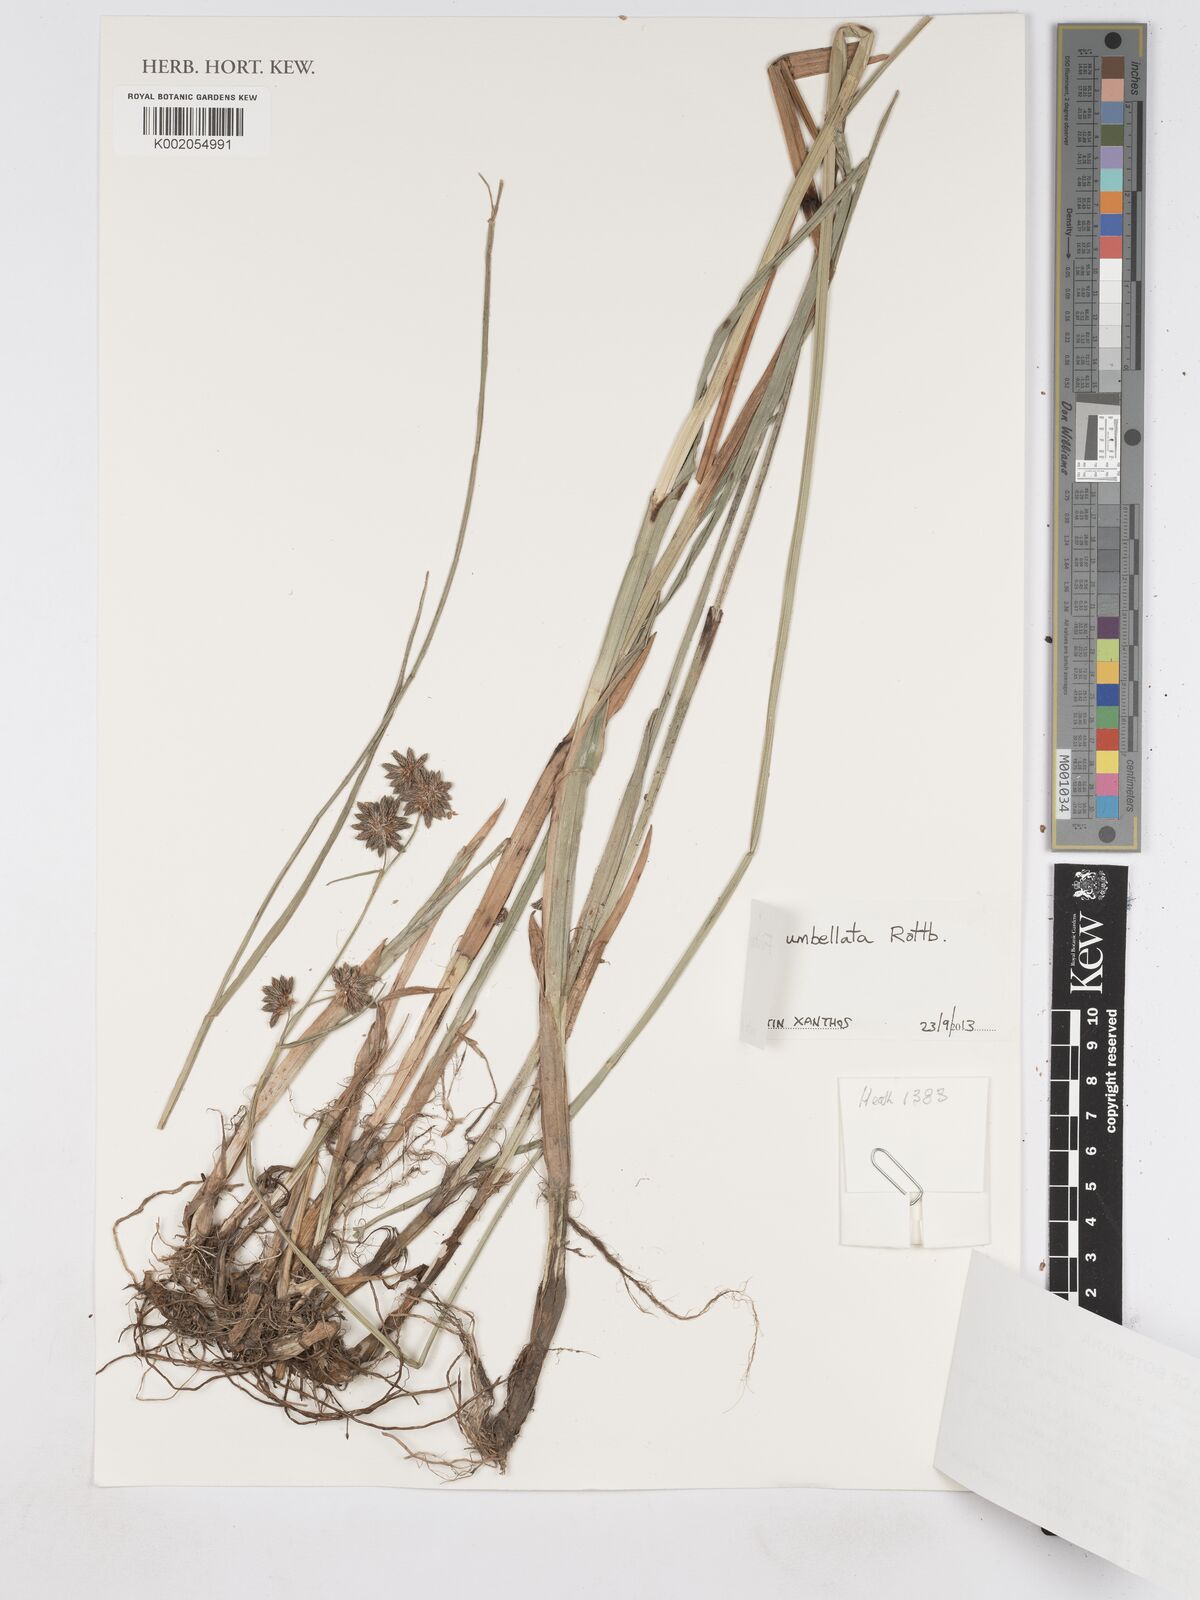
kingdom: Plantae
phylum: Tracheophyta
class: Liliopsida
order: Poales
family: Cyperaceae
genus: Fuirena
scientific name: Fuirena umbellata
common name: Yefen
